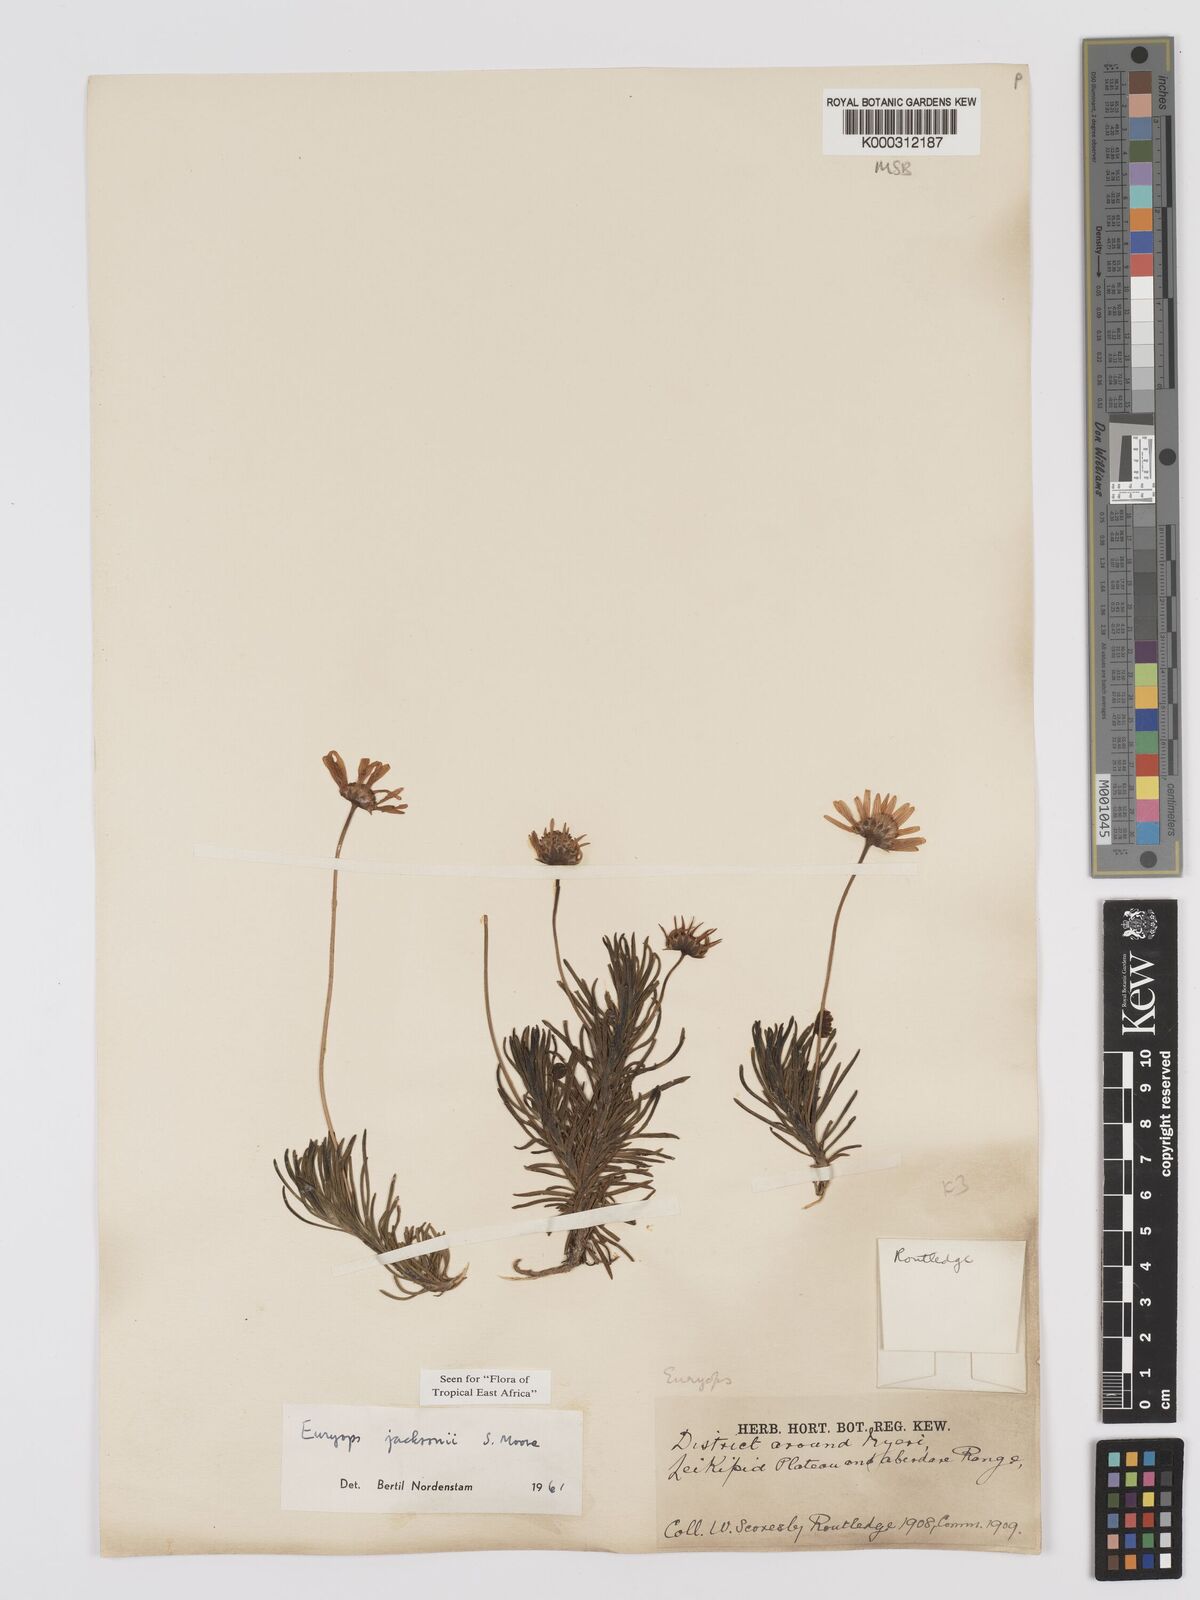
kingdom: Plantae
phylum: Tracheophyta
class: Magnoliopsida
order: Asterales
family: Asteraceae
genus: Euryops
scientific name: Euryops jacksonii
